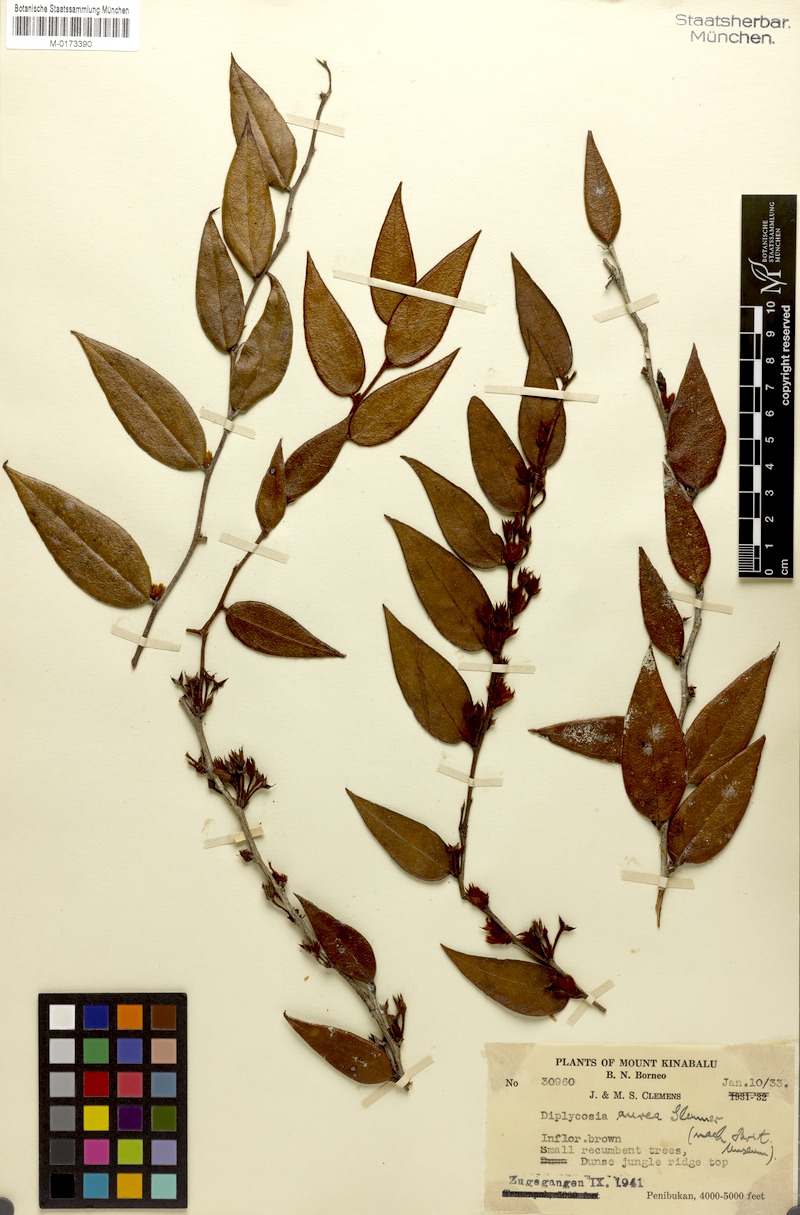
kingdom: Plantae
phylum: Tracheophyta
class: Magnoliopsida
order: Ericales
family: Ericaceae
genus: Gaultheria
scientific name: Gaultheria aurea
